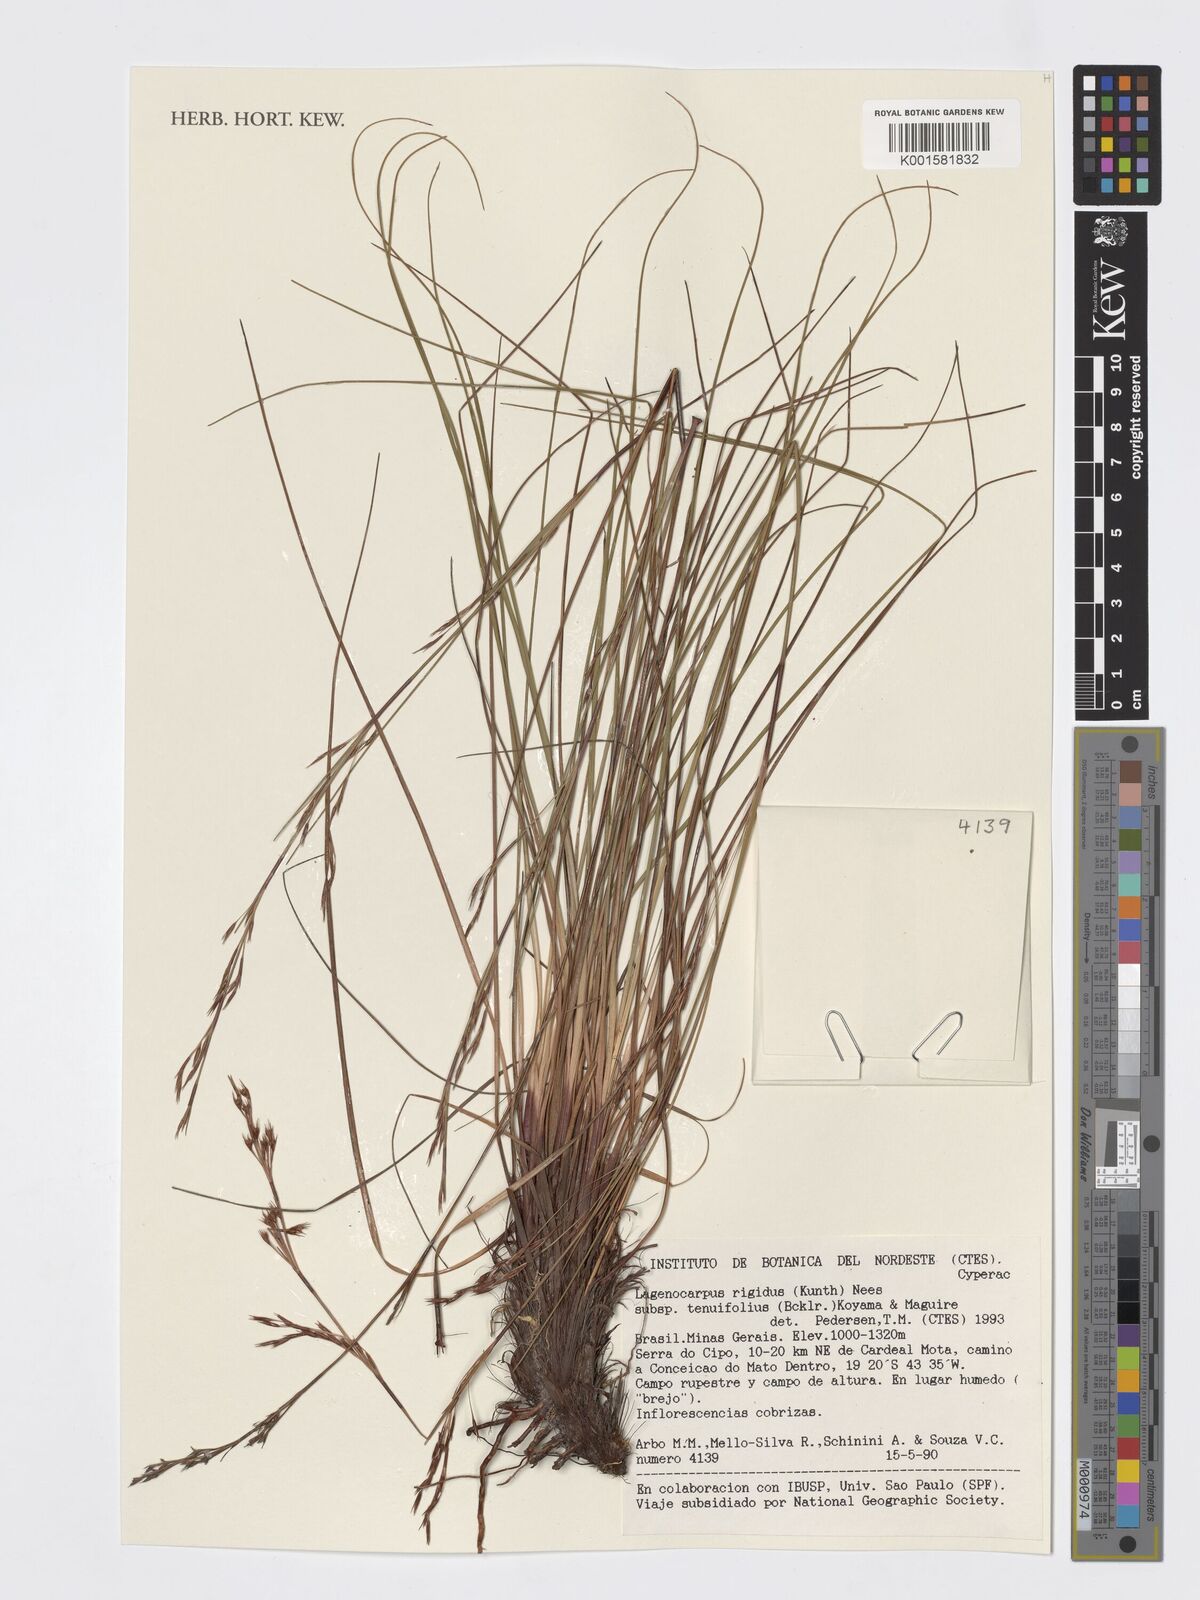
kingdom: Plantae
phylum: Tracheophyta
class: Liliopsida
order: Poales
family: Cyperaceae
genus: Lagenocarpus
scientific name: Lagenocarpus rigidus
